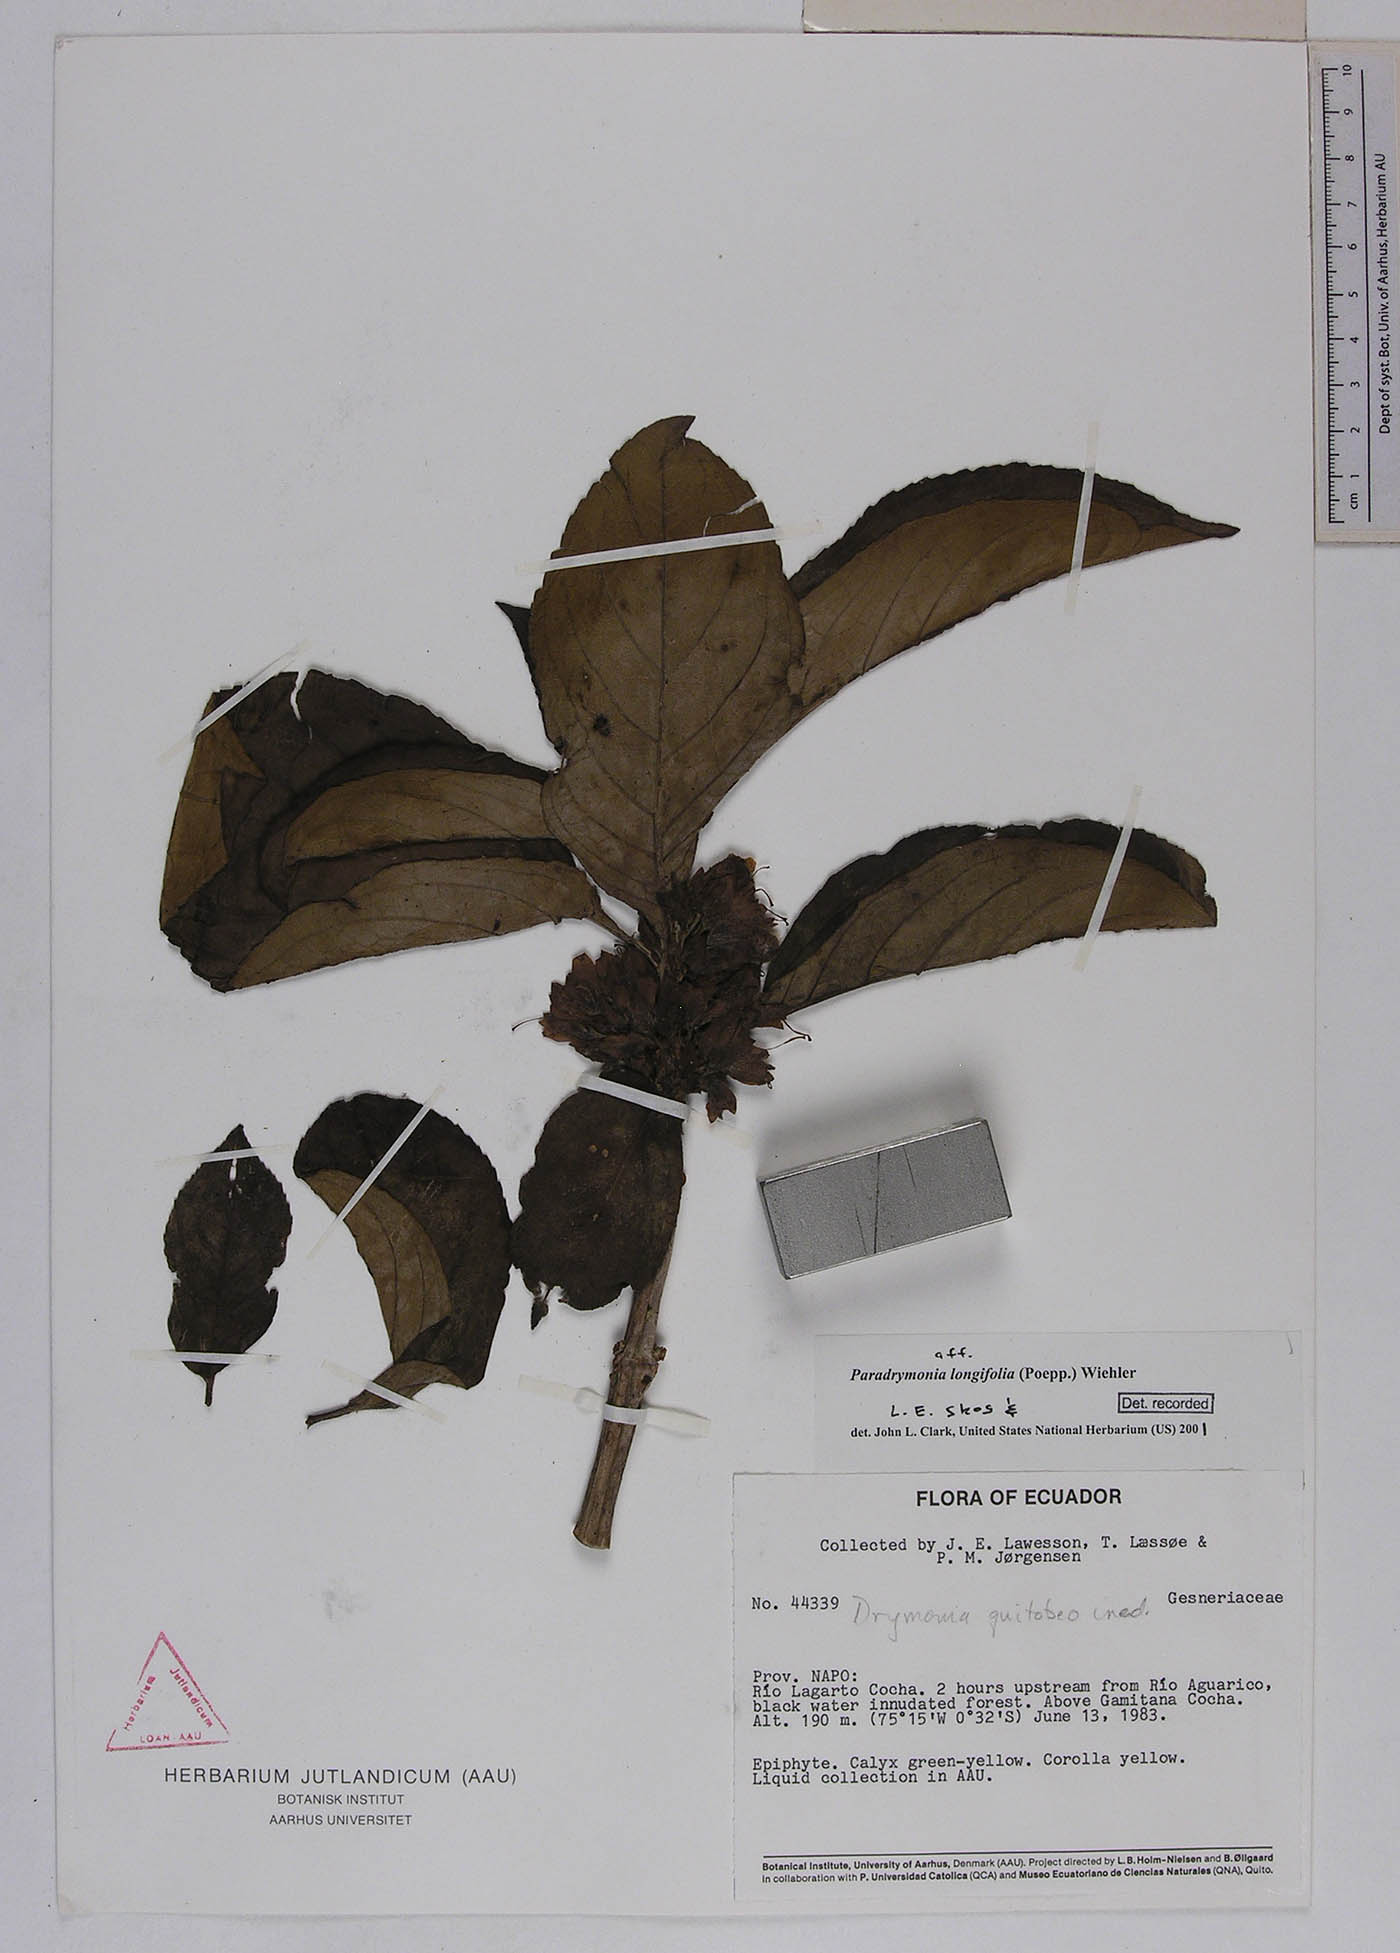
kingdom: Plantae
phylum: Tracheophyta
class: Magnoliopsida
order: Lamiales
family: Gesneriaceae
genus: Paradrymonia
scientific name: Paradrymonia longifolia
